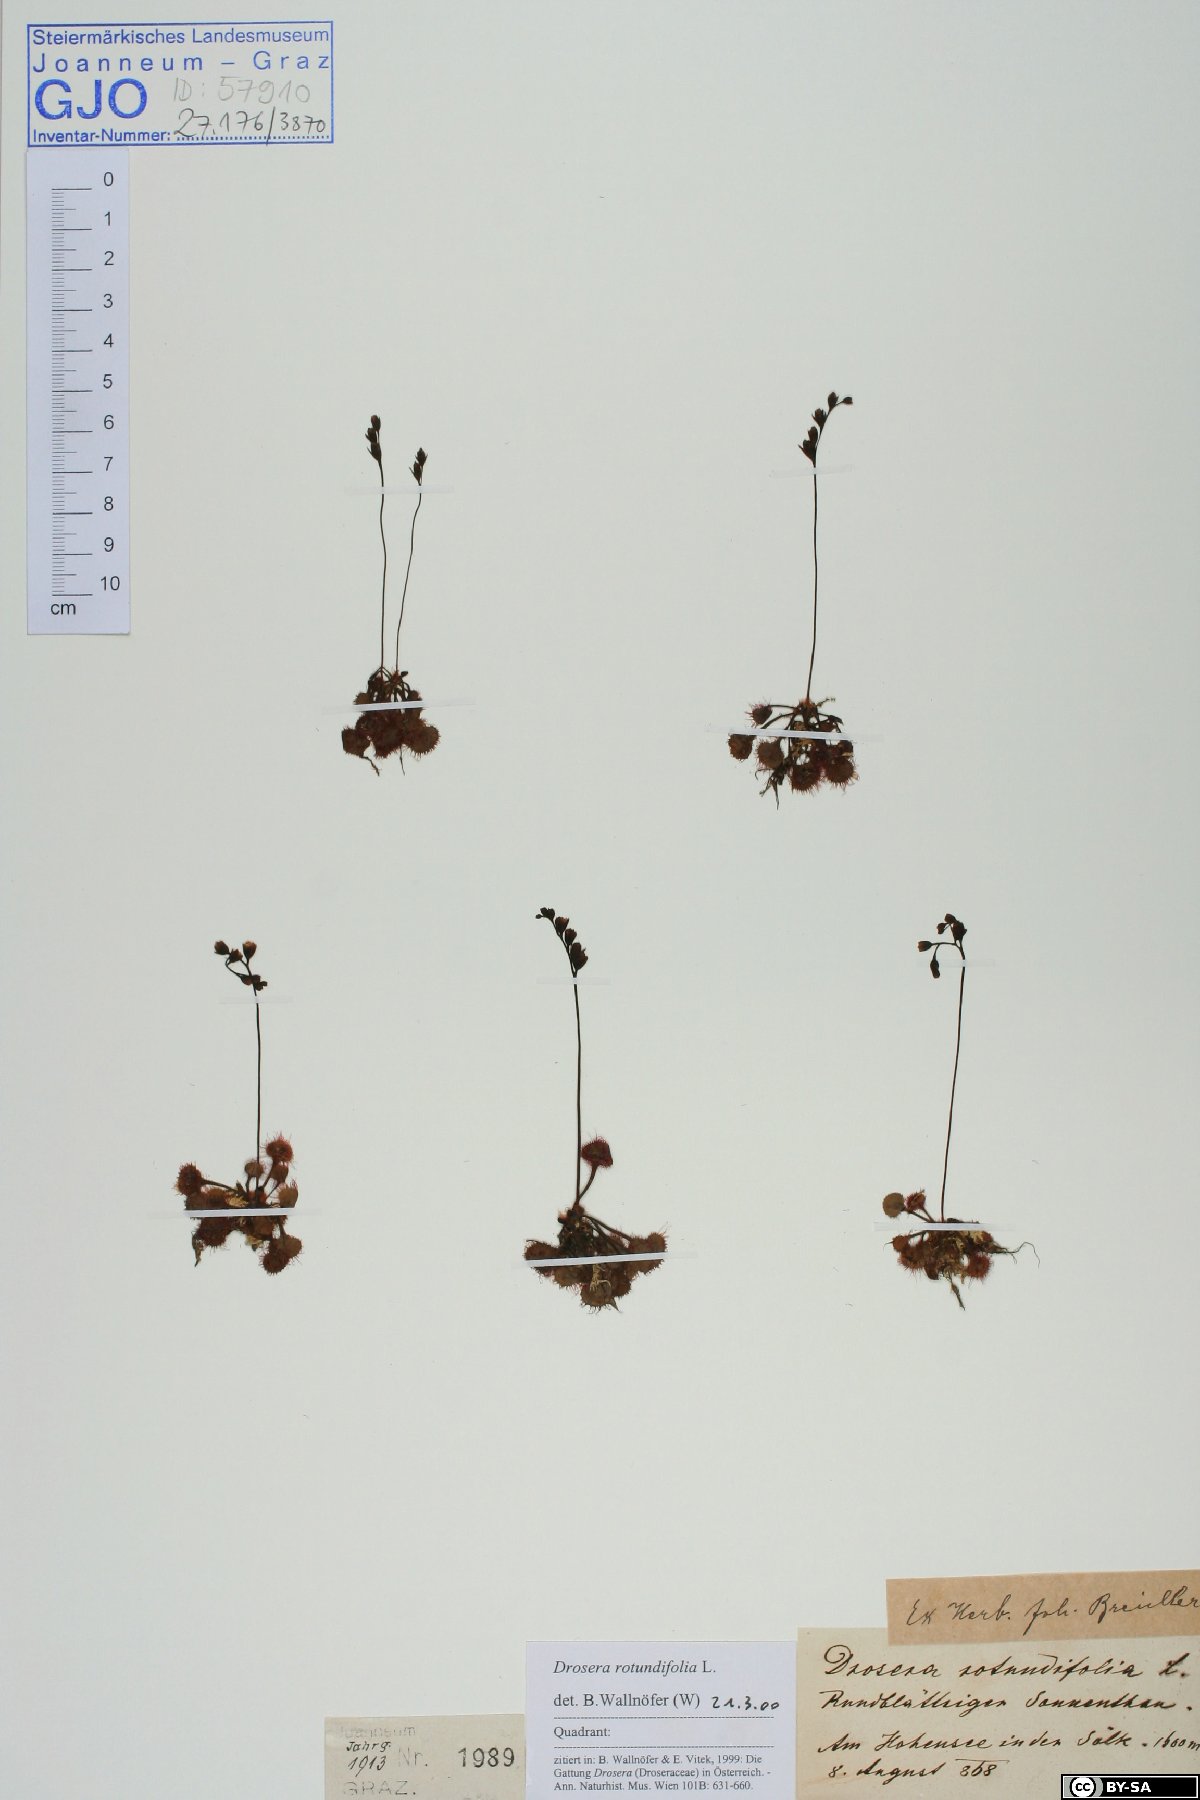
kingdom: Plantae
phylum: Tracheophyta
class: Magnoliopsida
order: Caryophyllales
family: Droseraceae
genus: Drosera
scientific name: Drosera rotundifolia
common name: Round-leaved sundew
